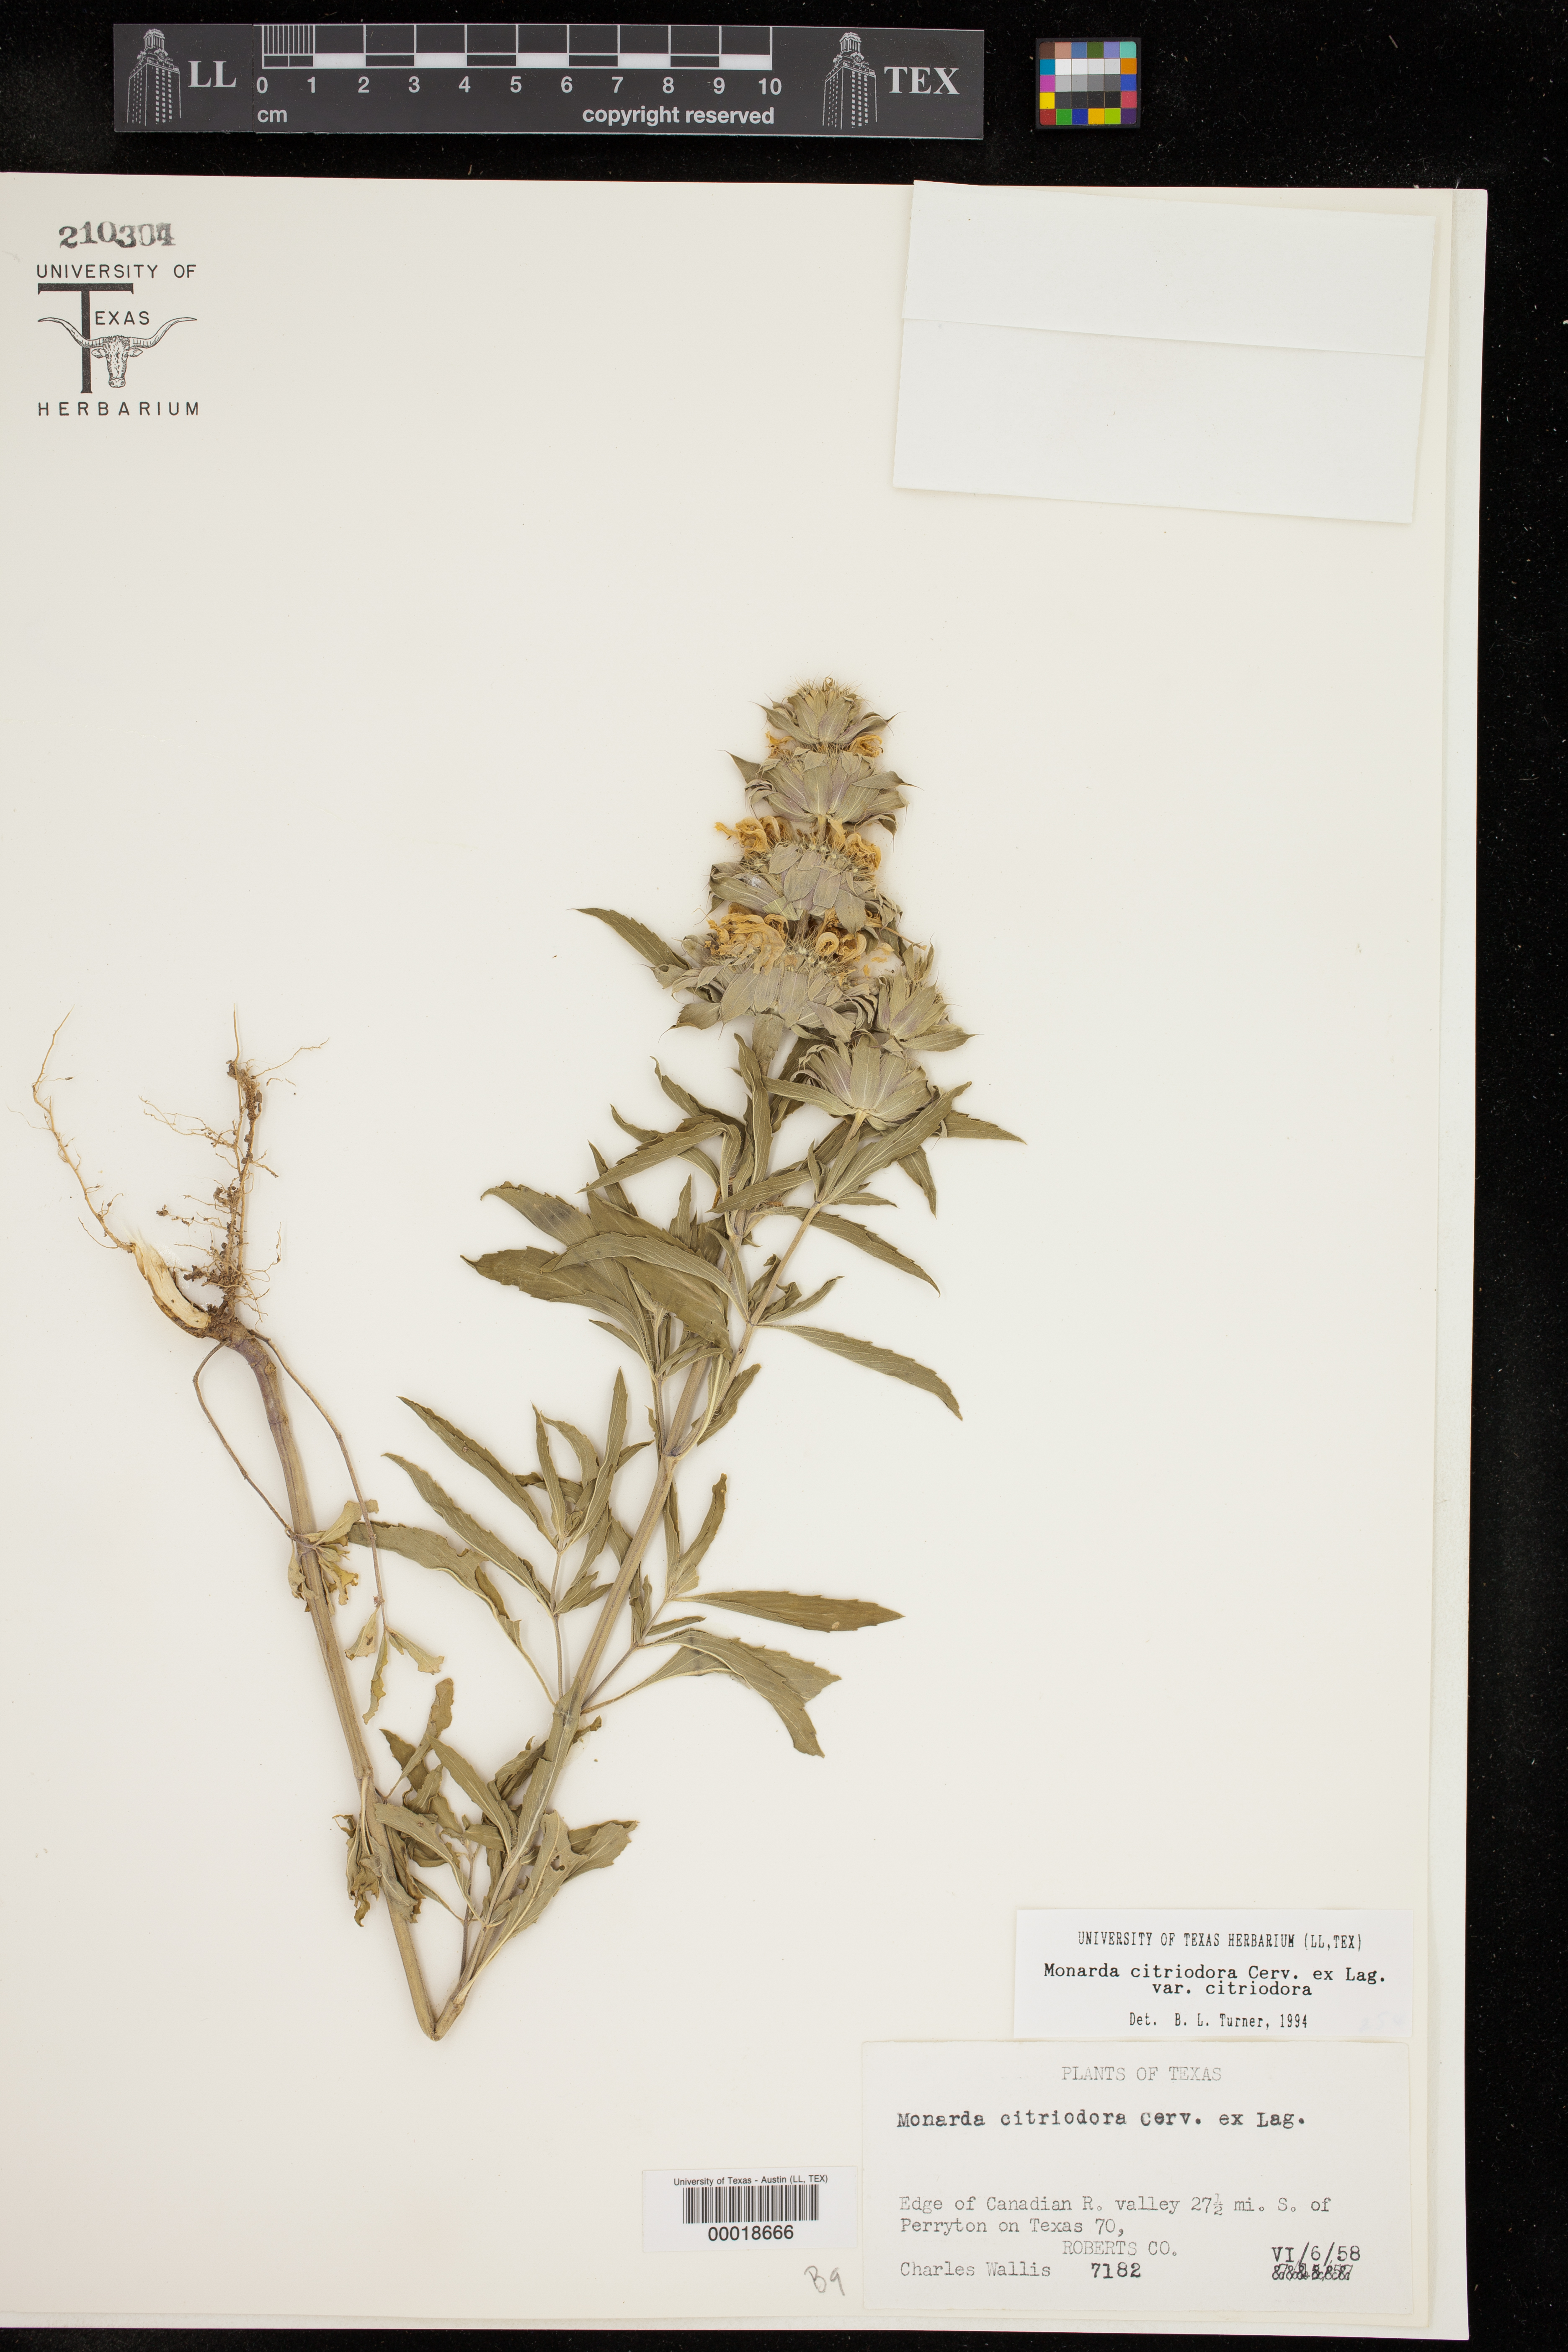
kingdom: Plantae
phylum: Tracheophyta
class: Magnoliopsida
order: Lamiales
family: Lamiaceae
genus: Monarda
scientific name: Monarda citriodora
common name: Lemon beebalm
